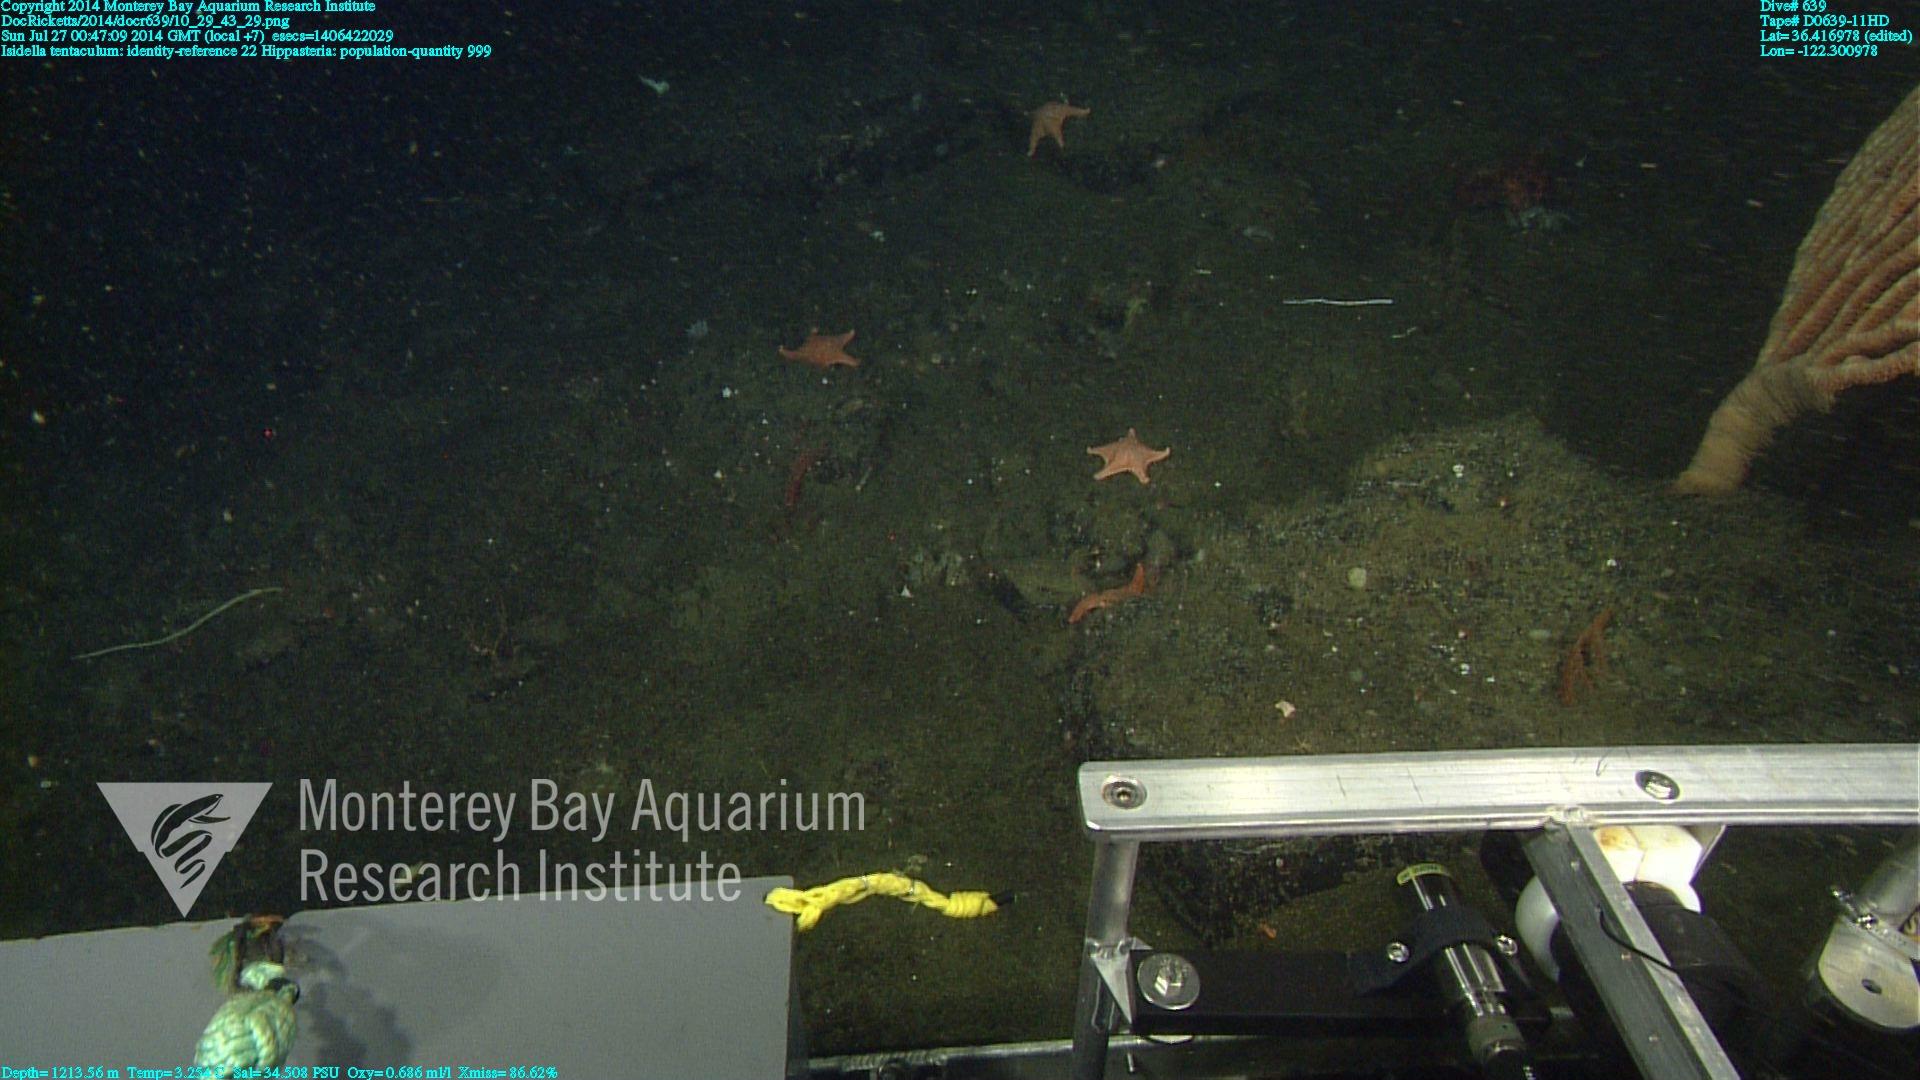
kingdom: Animalia
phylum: Cnidaria
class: Anthozoa
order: Scleralcyonacea
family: Keratoisididae
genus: Isidella
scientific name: Isidella tentaculum
